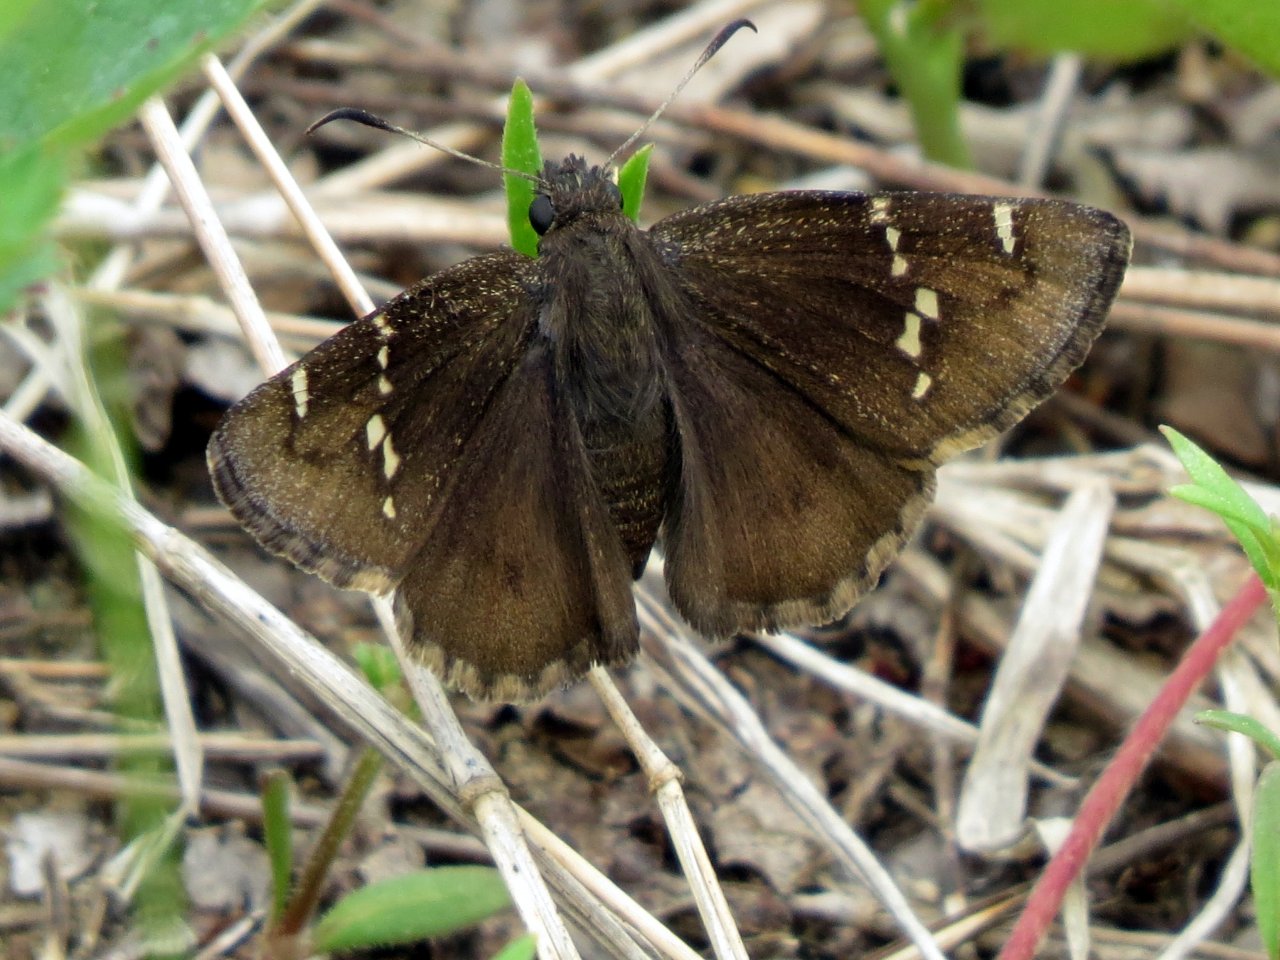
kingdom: Animalia
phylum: Arthropoda
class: Insecta
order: Lepidoptera
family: Hesperiidae
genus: Autochton
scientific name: Autochton
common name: Southern Cloudywing
